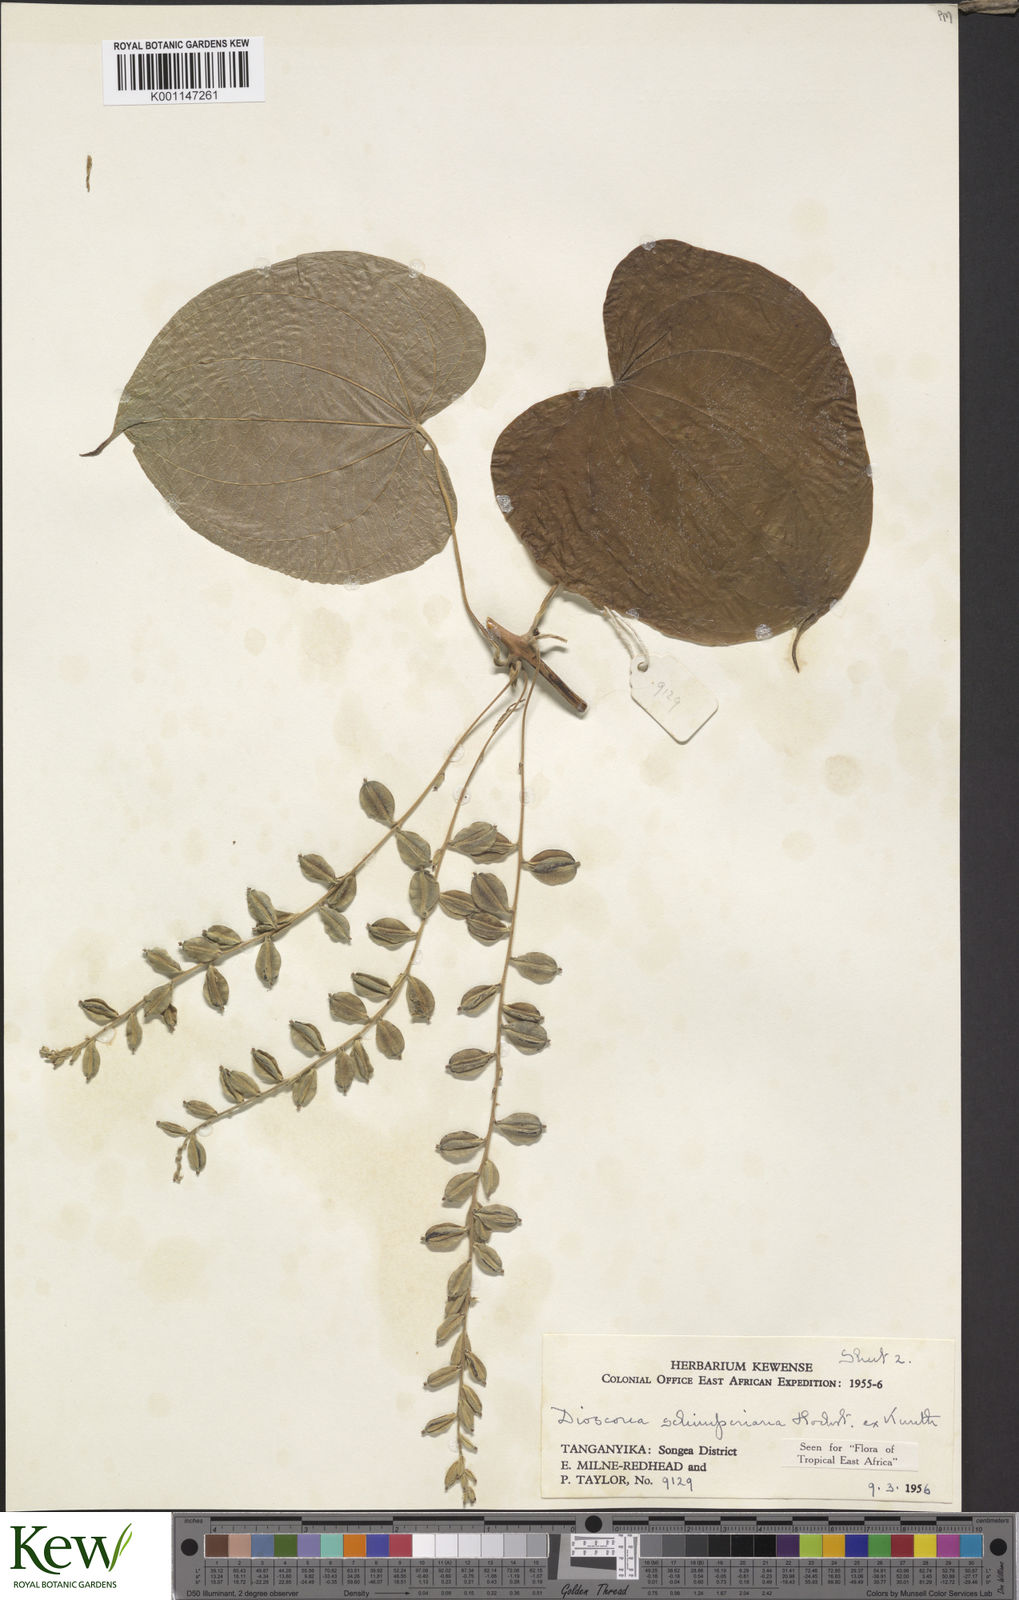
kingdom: Plantae
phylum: Tracheophyta
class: Liliopsida
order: Dioscoreales
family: Dioscoreaceae
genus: Dioscorea
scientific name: Dioscorea schimperiana
